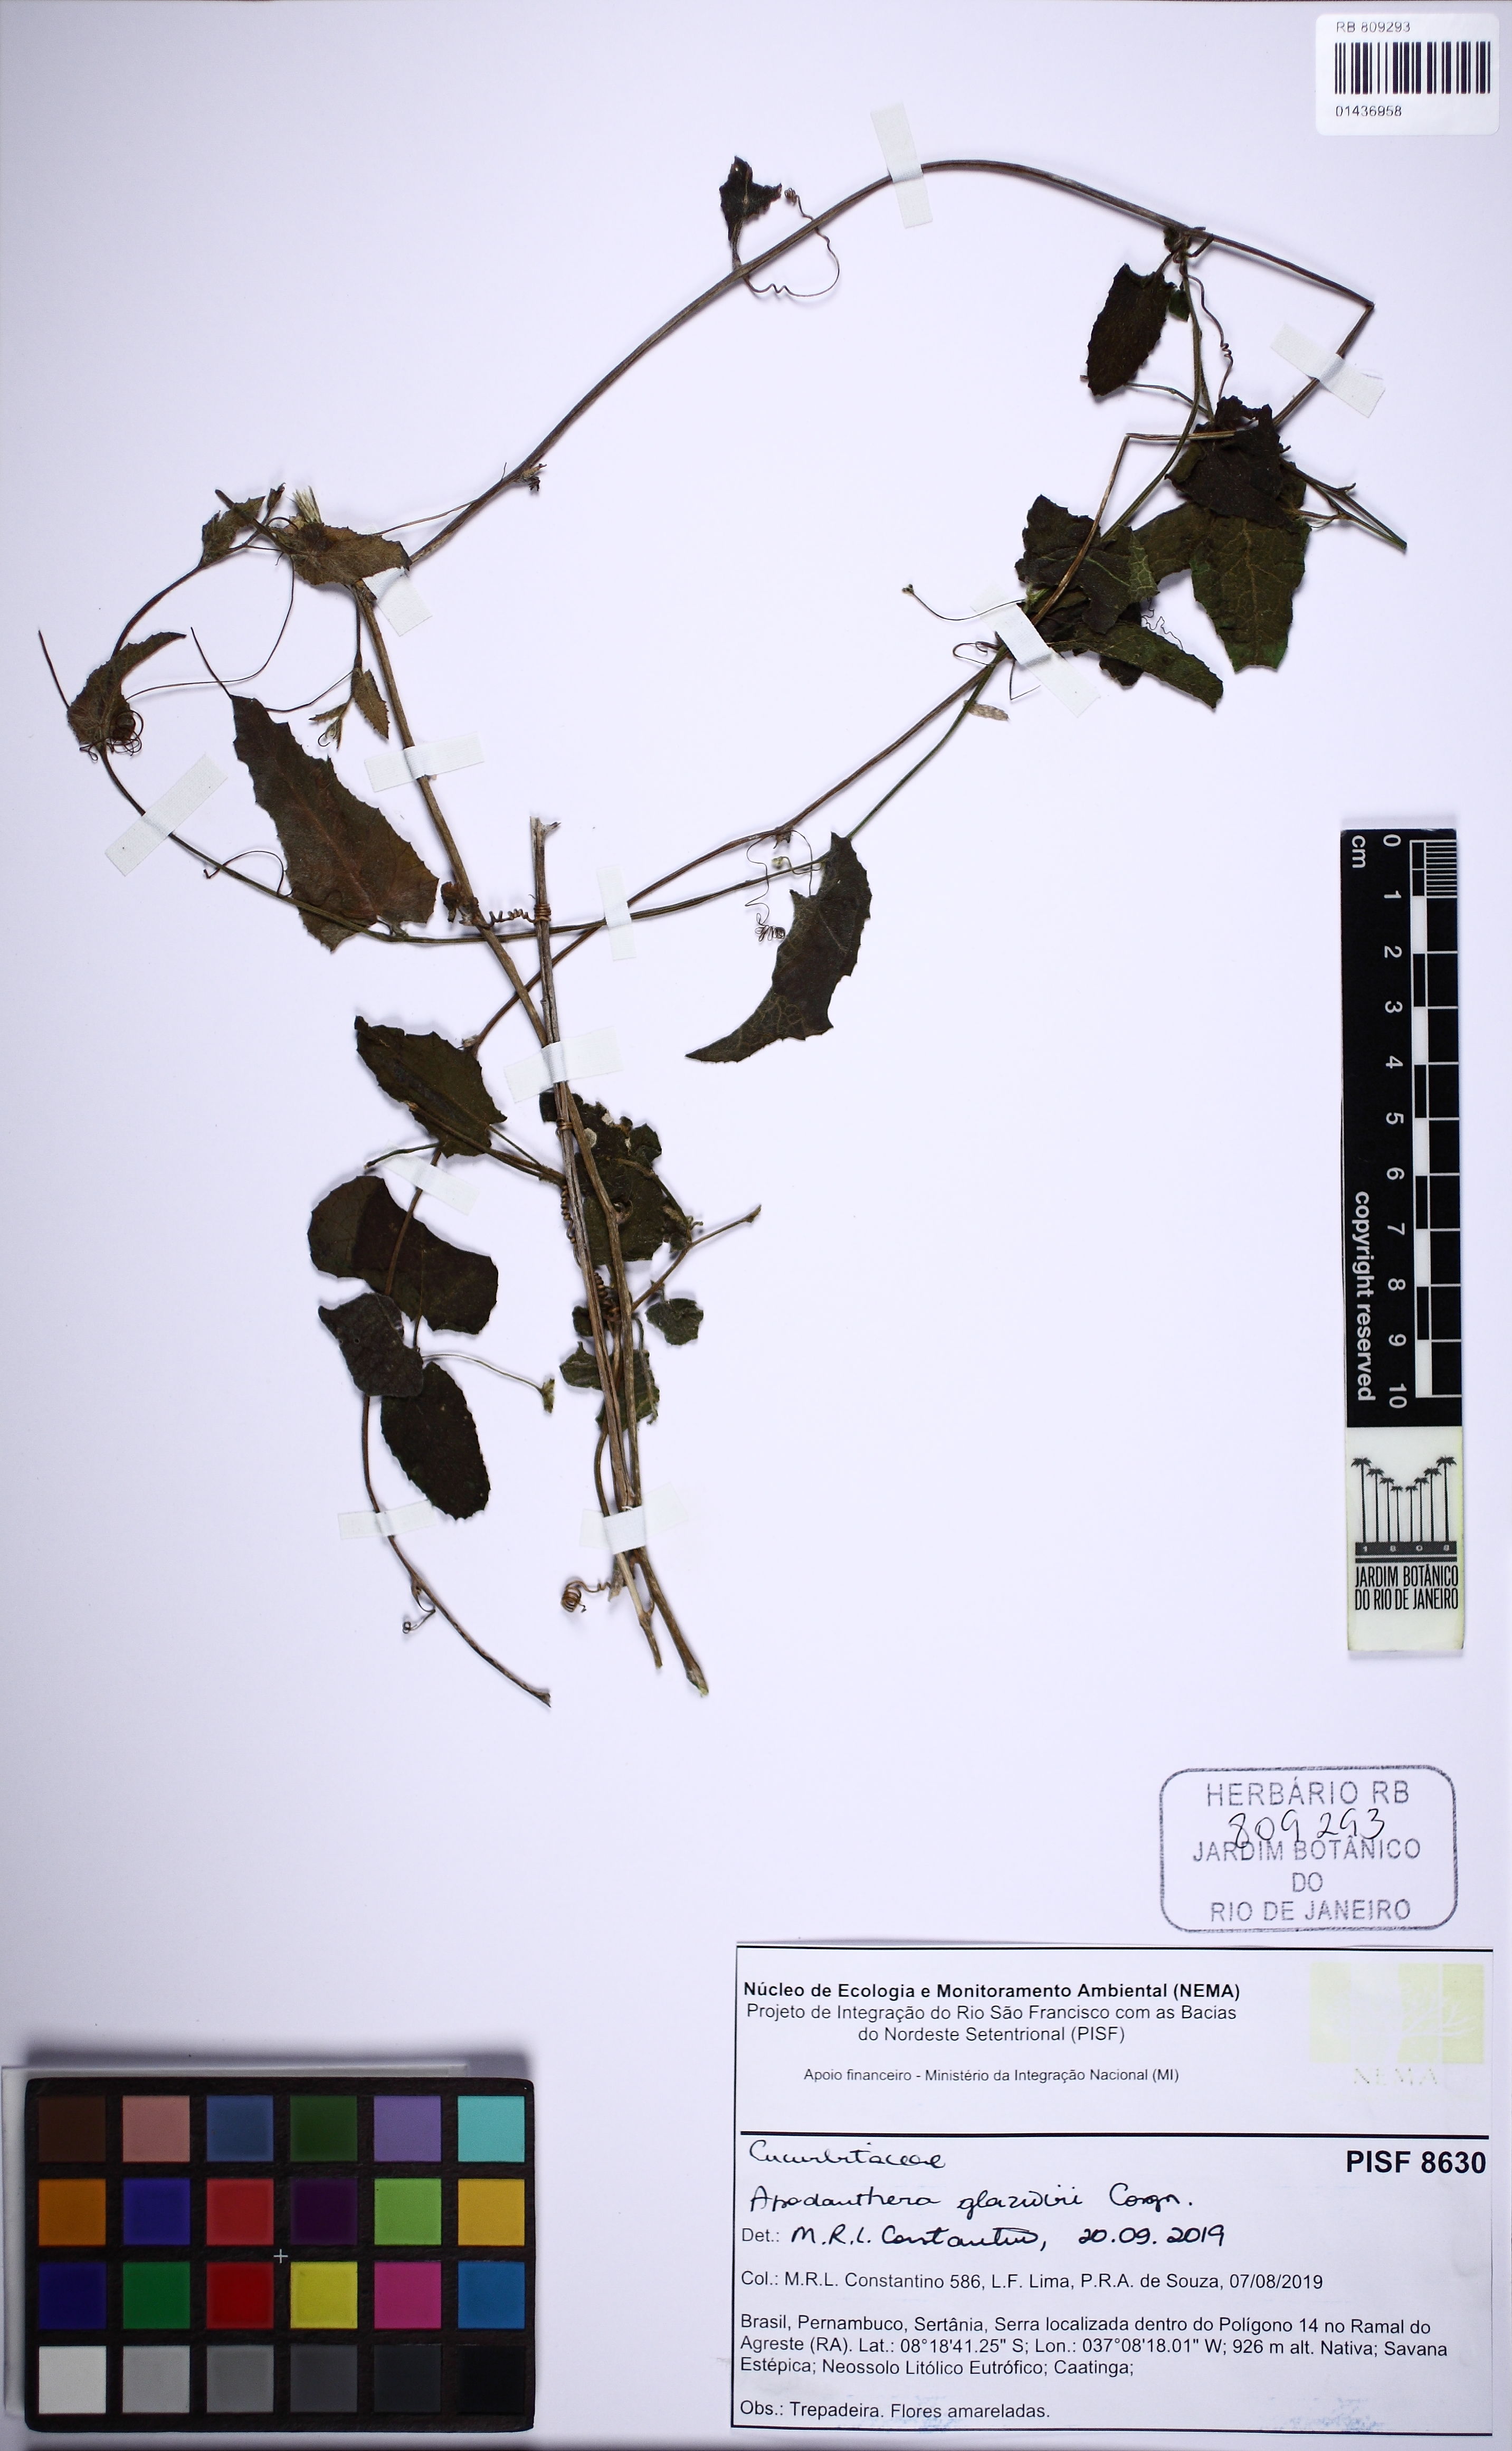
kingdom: Plantae
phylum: Tracheophyta
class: Magnoliopsida
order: Cucurbitales
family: Cucurbitaceae
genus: Apodanthera
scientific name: Apodanthera glaziovii
